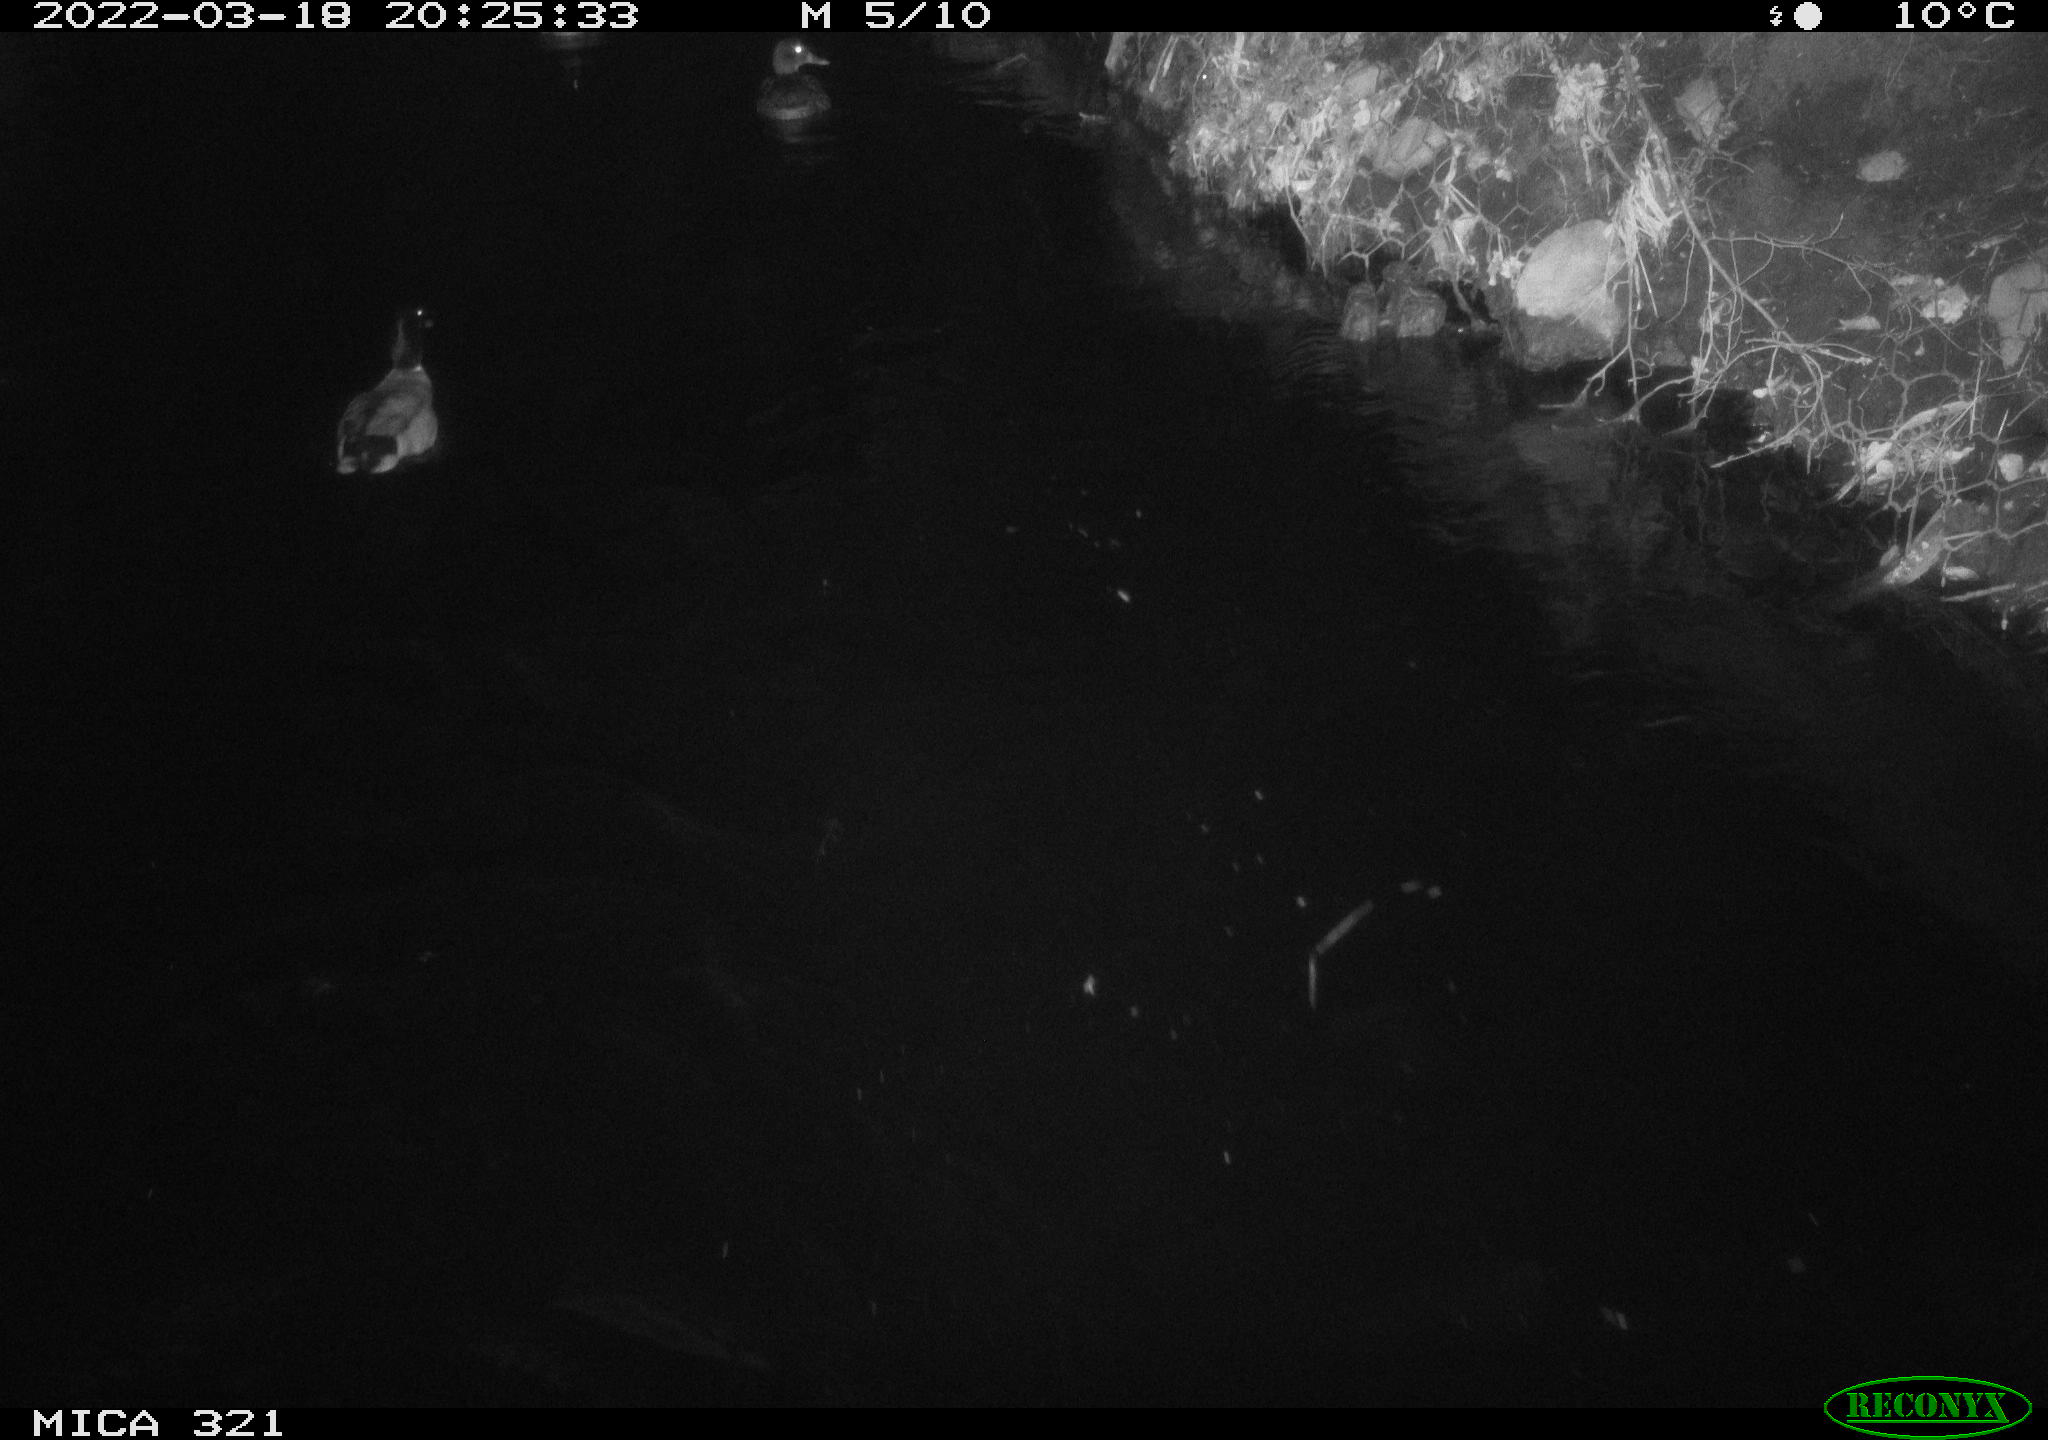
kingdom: Animalia
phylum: Chordata
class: Aves
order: Anseriformes
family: Anatidae
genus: Anas
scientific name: Anas platyrhynchos
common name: Mallard
